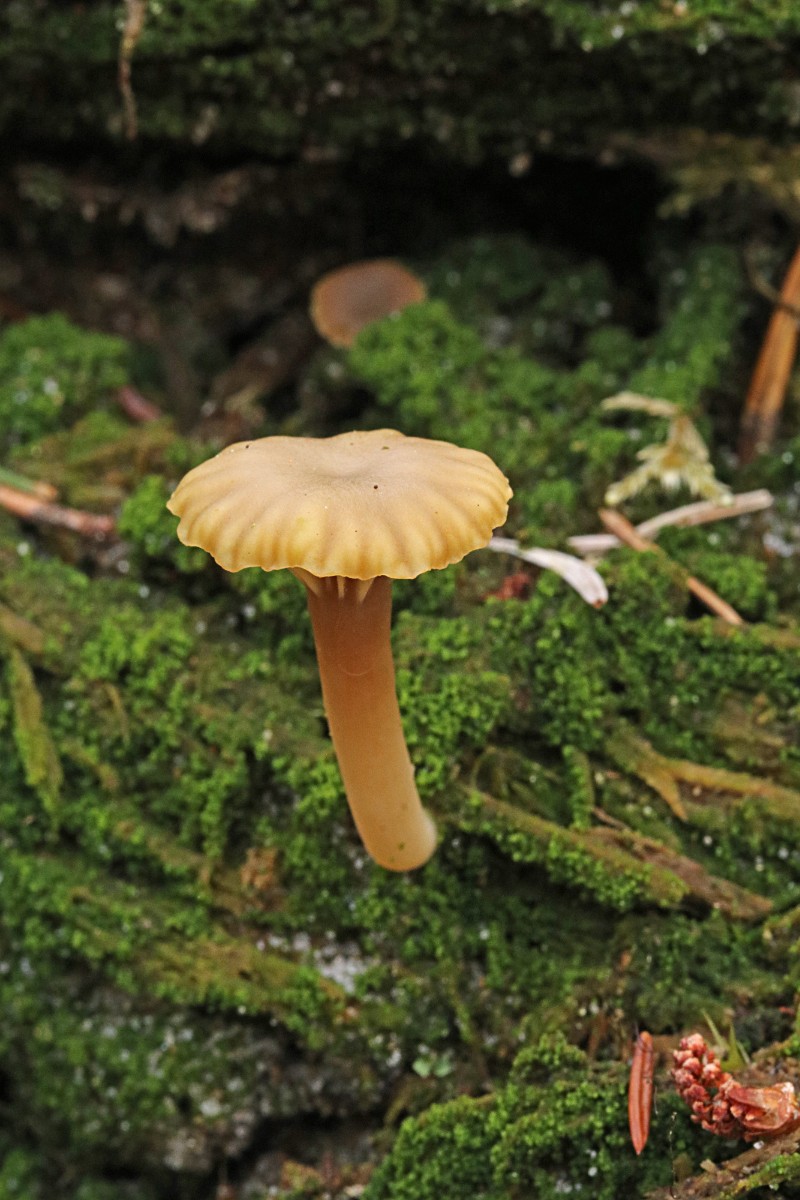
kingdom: Fungi
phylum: Basidiomycota
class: Agaricomycetes
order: Agaricales
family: Hygrophoraceae
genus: Lichenomphalia
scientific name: Lichenomphalia umbellifera
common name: tørve-lavhat
